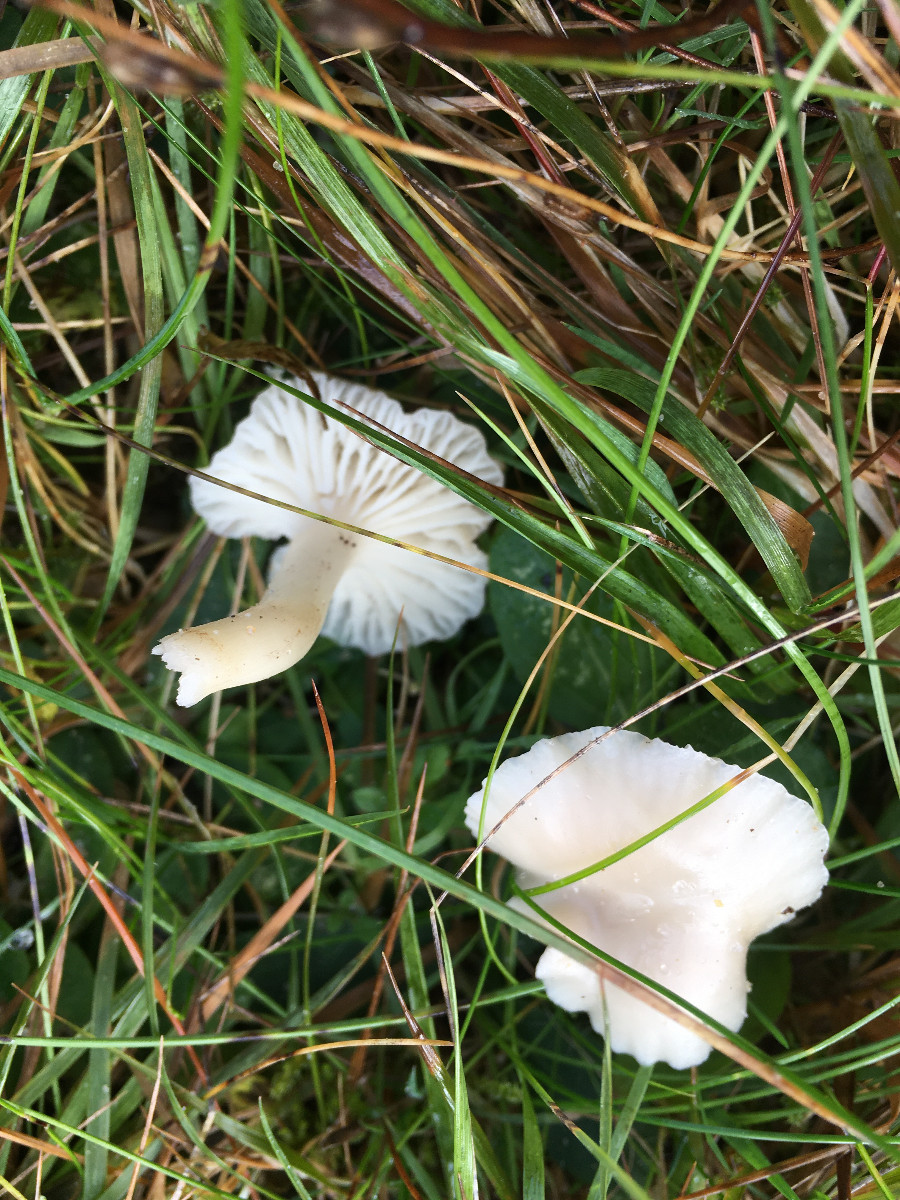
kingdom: Fungi
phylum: Basidiomycota
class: Agaricomycetes
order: Agaricales
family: Hygrophoraceae
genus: Cuphophyllus
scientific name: Cuphophyllus
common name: vokshat
